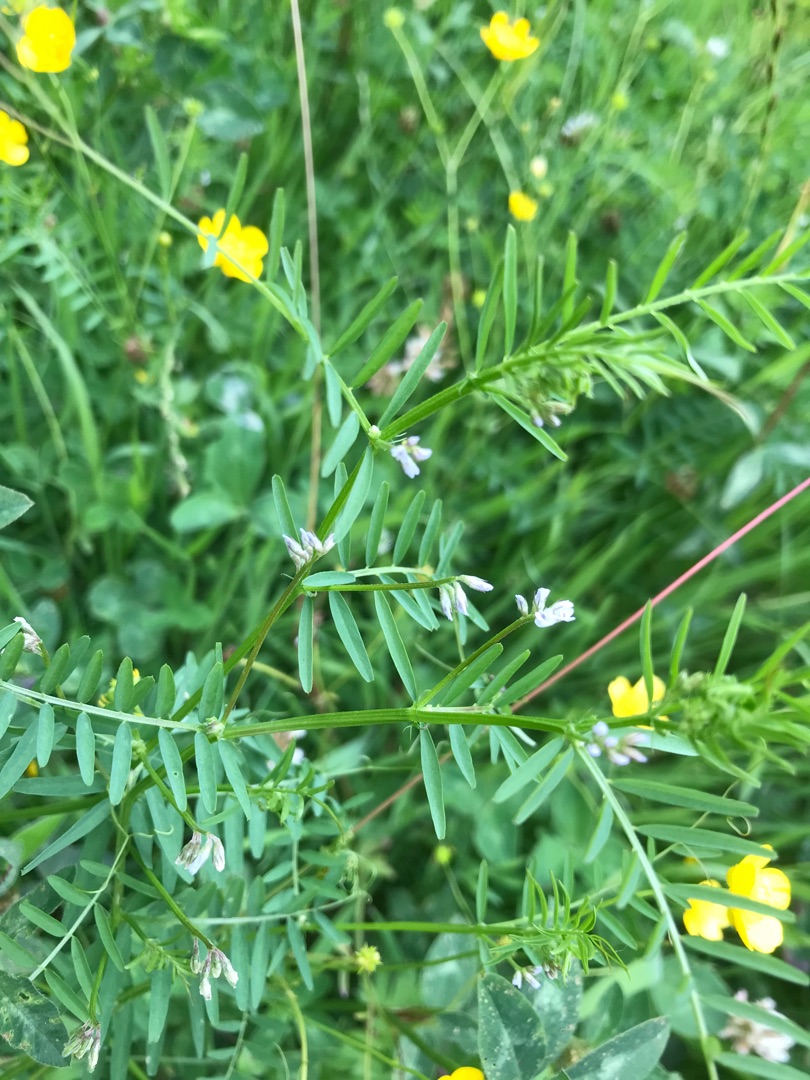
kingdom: Plantae
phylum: Tracheophyta
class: Magnoliopsida
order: Fabales
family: Fabaceae
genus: Vicia
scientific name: Vicia hirsuta
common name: Tofrøet vikke
